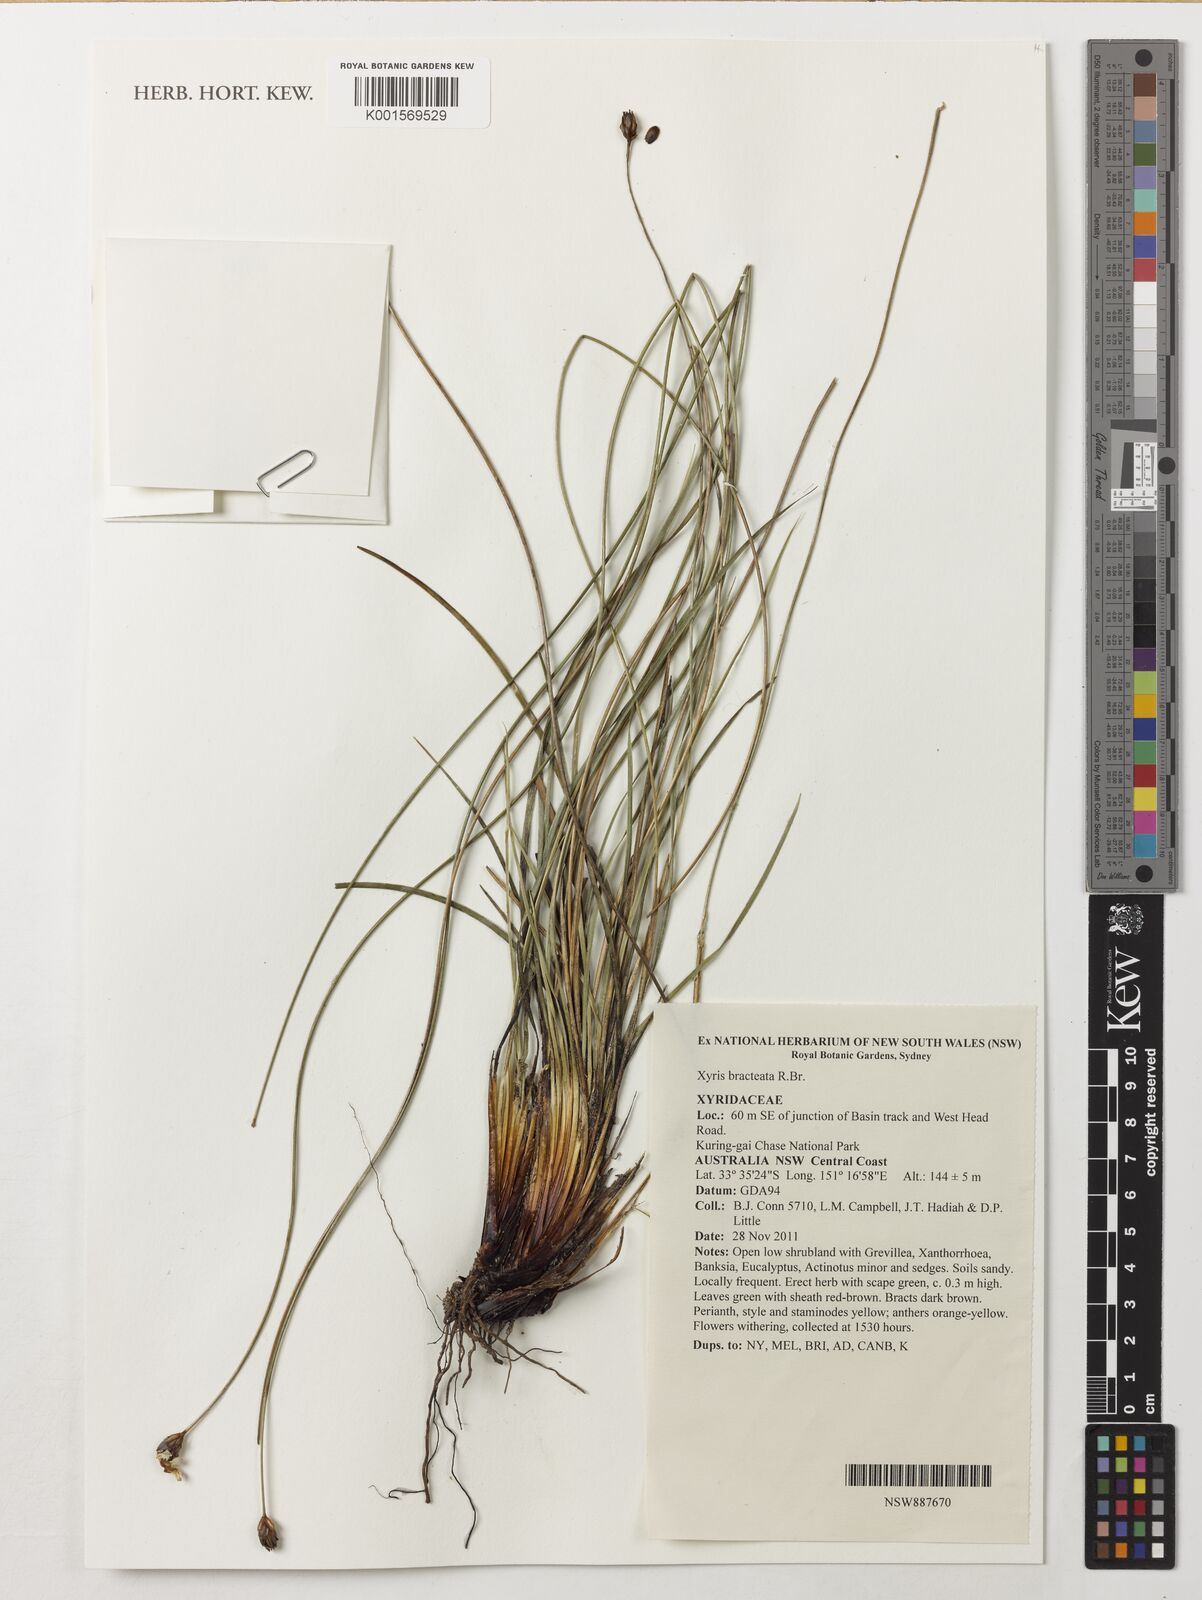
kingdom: Plantae
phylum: Tracheophyta
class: Liliopsida
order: Poales
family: Xyridaceae
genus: Xyris
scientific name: Xyris bracteata
